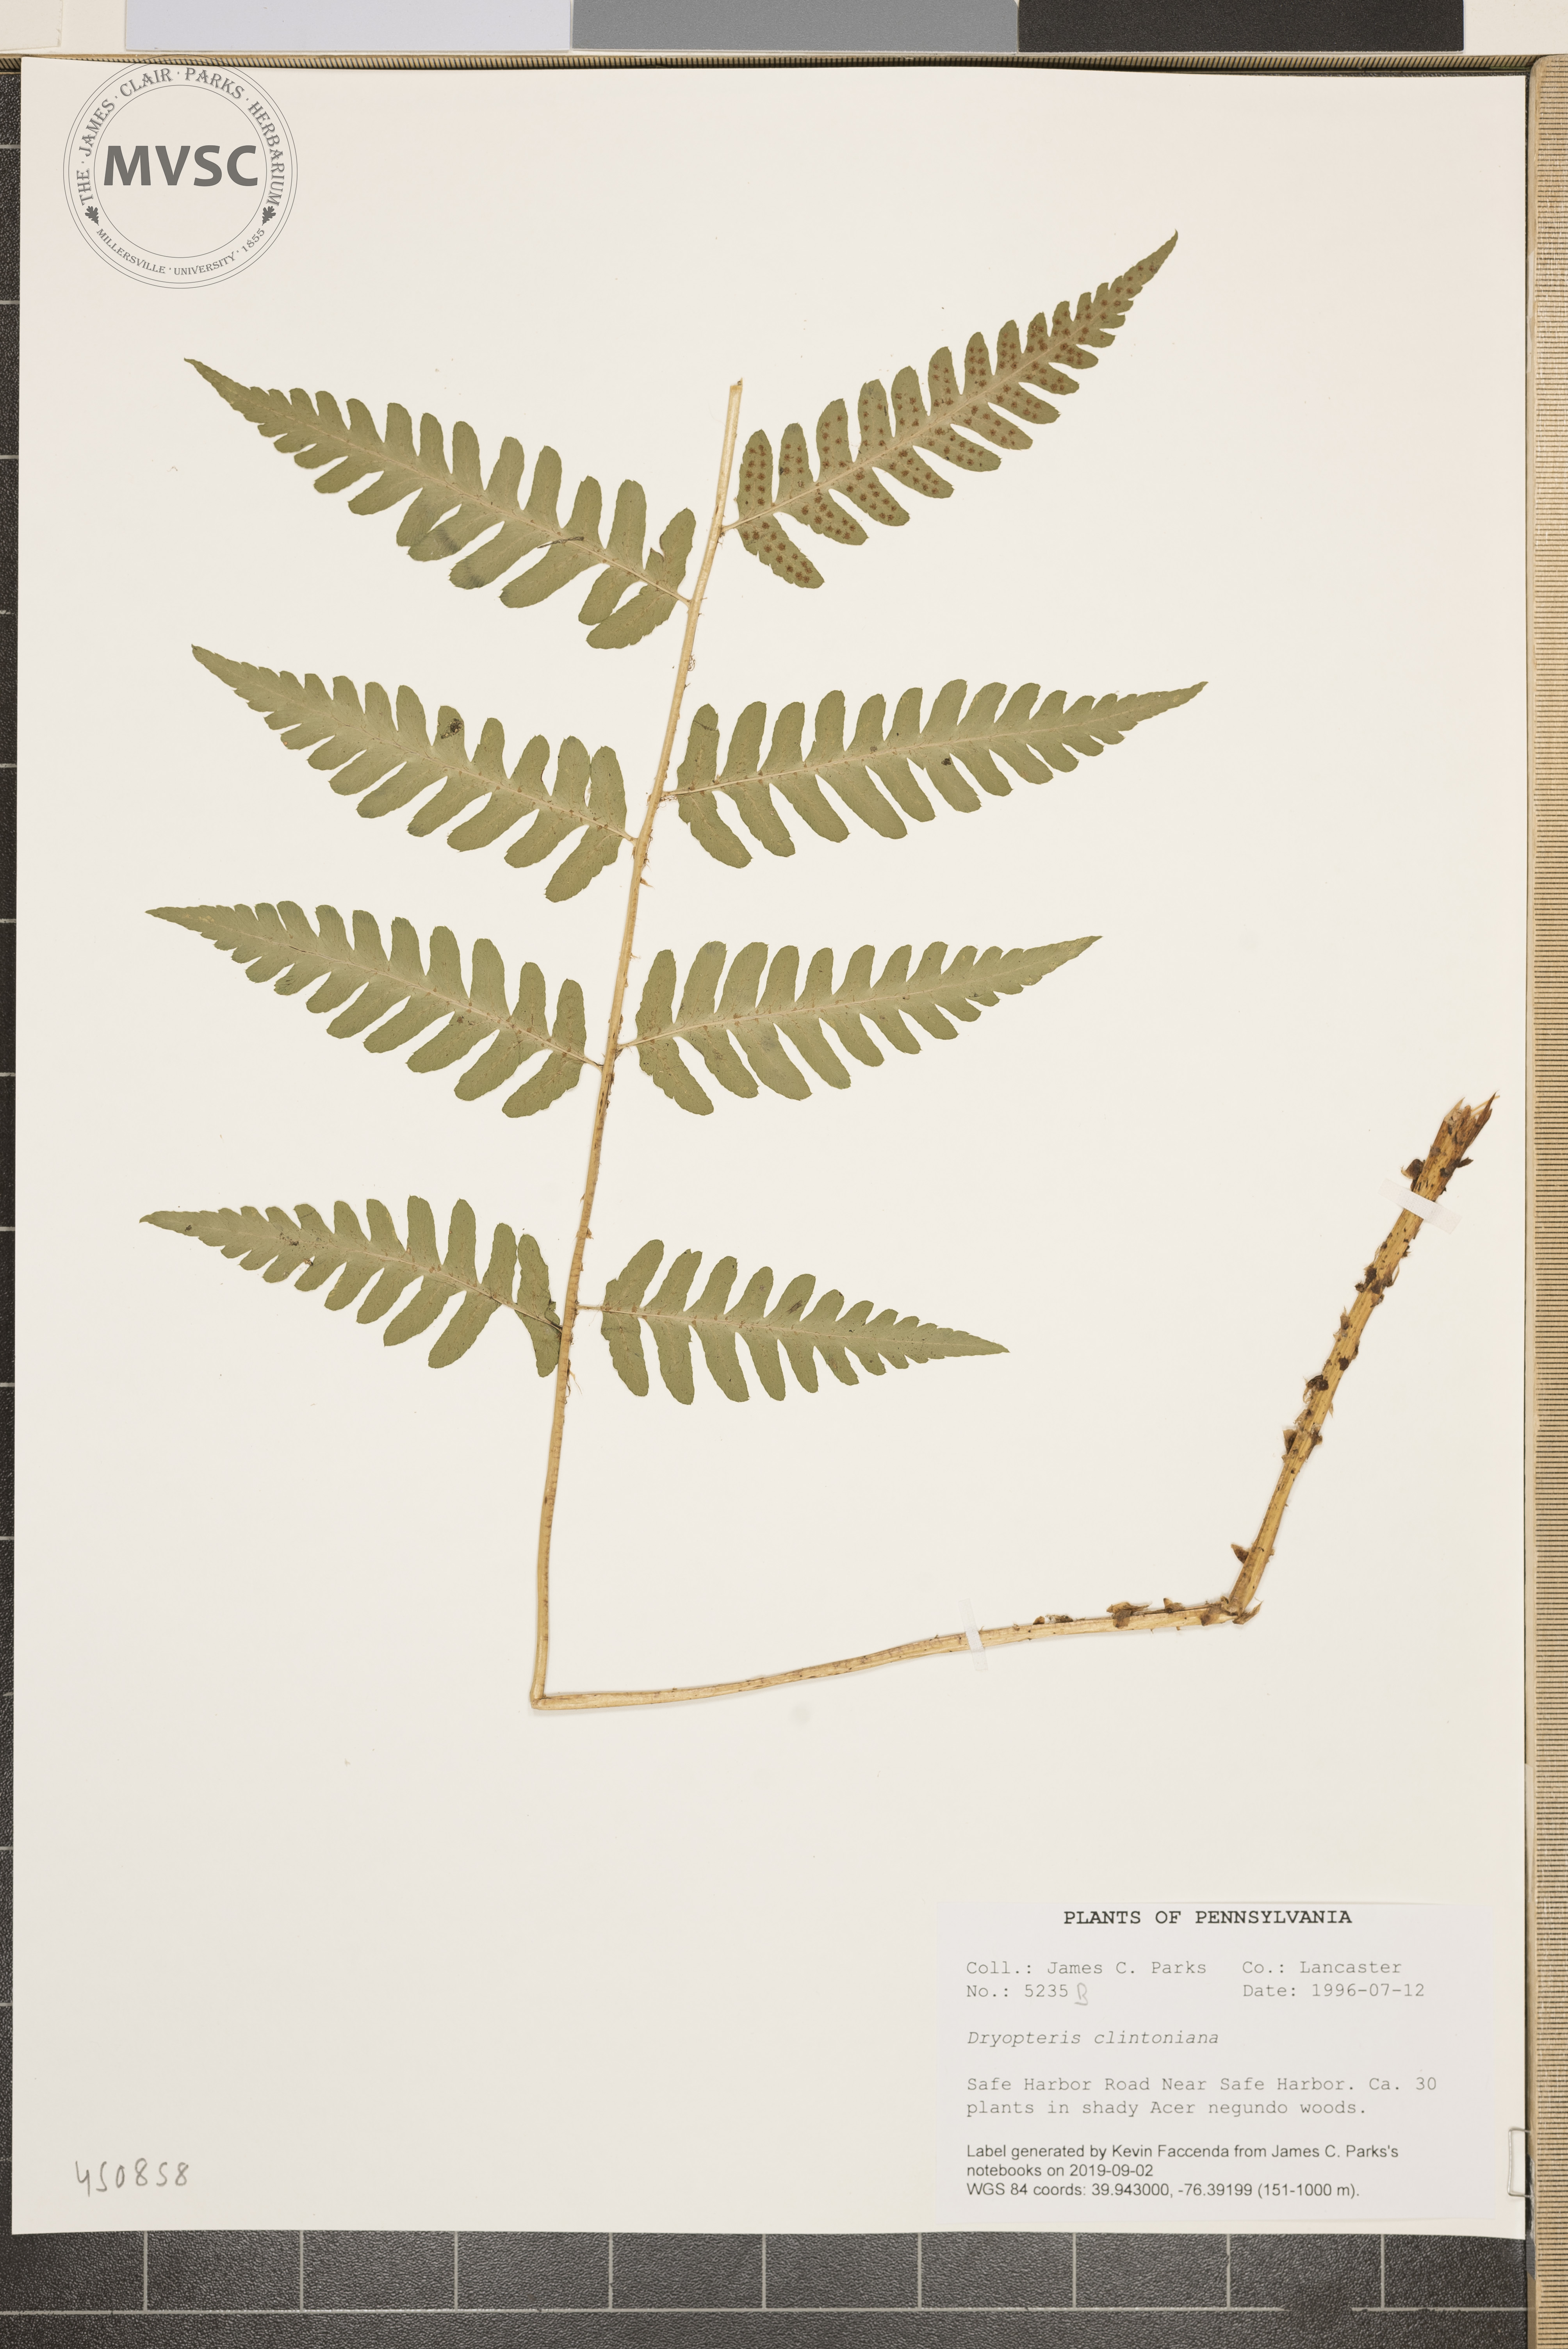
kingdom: Plantae
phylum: Tracheophyta
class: Polypodiopsida
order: Polypodiales
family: Dryopteridaceae
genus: Dryopteris
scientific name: Dryopteris clintoniana
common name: Clinton's wood fern
